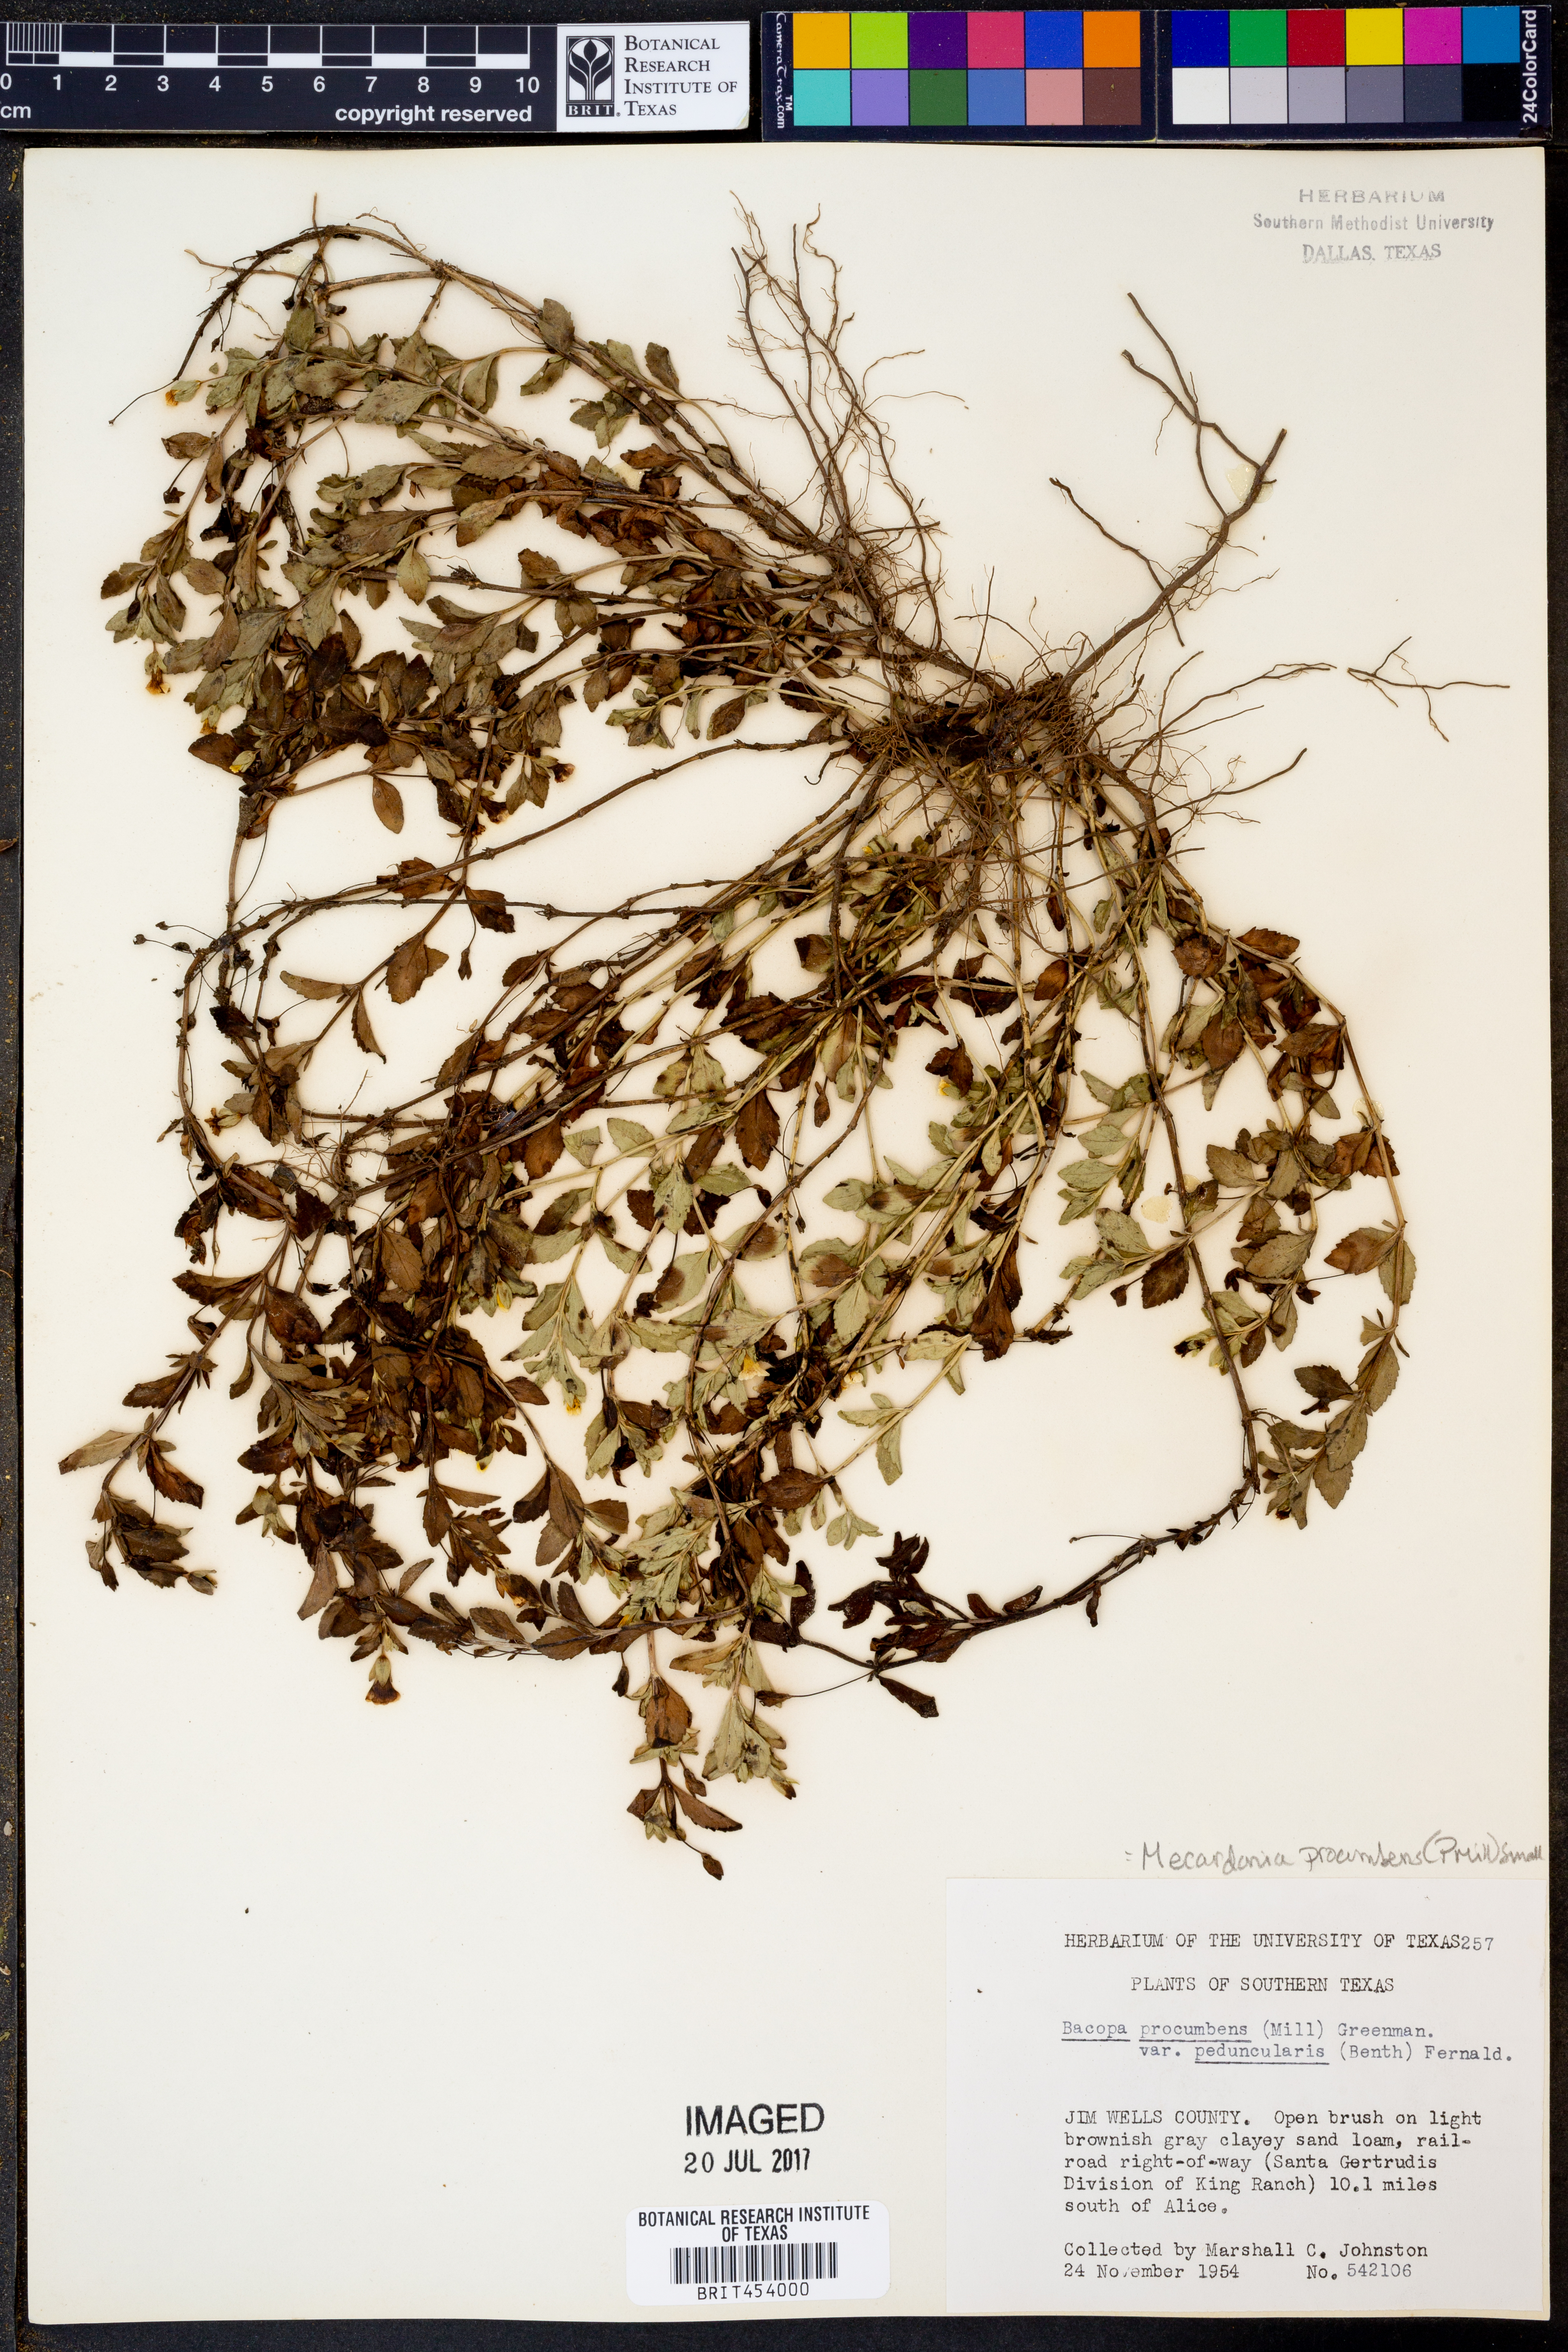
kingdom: Plantae
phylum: Tracheophyta
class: Magnoliopsida
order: Lamiales
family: Plantaginaceae
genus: Mecardonia
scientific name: Mecardonia procumbens
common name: Baby jump-up
